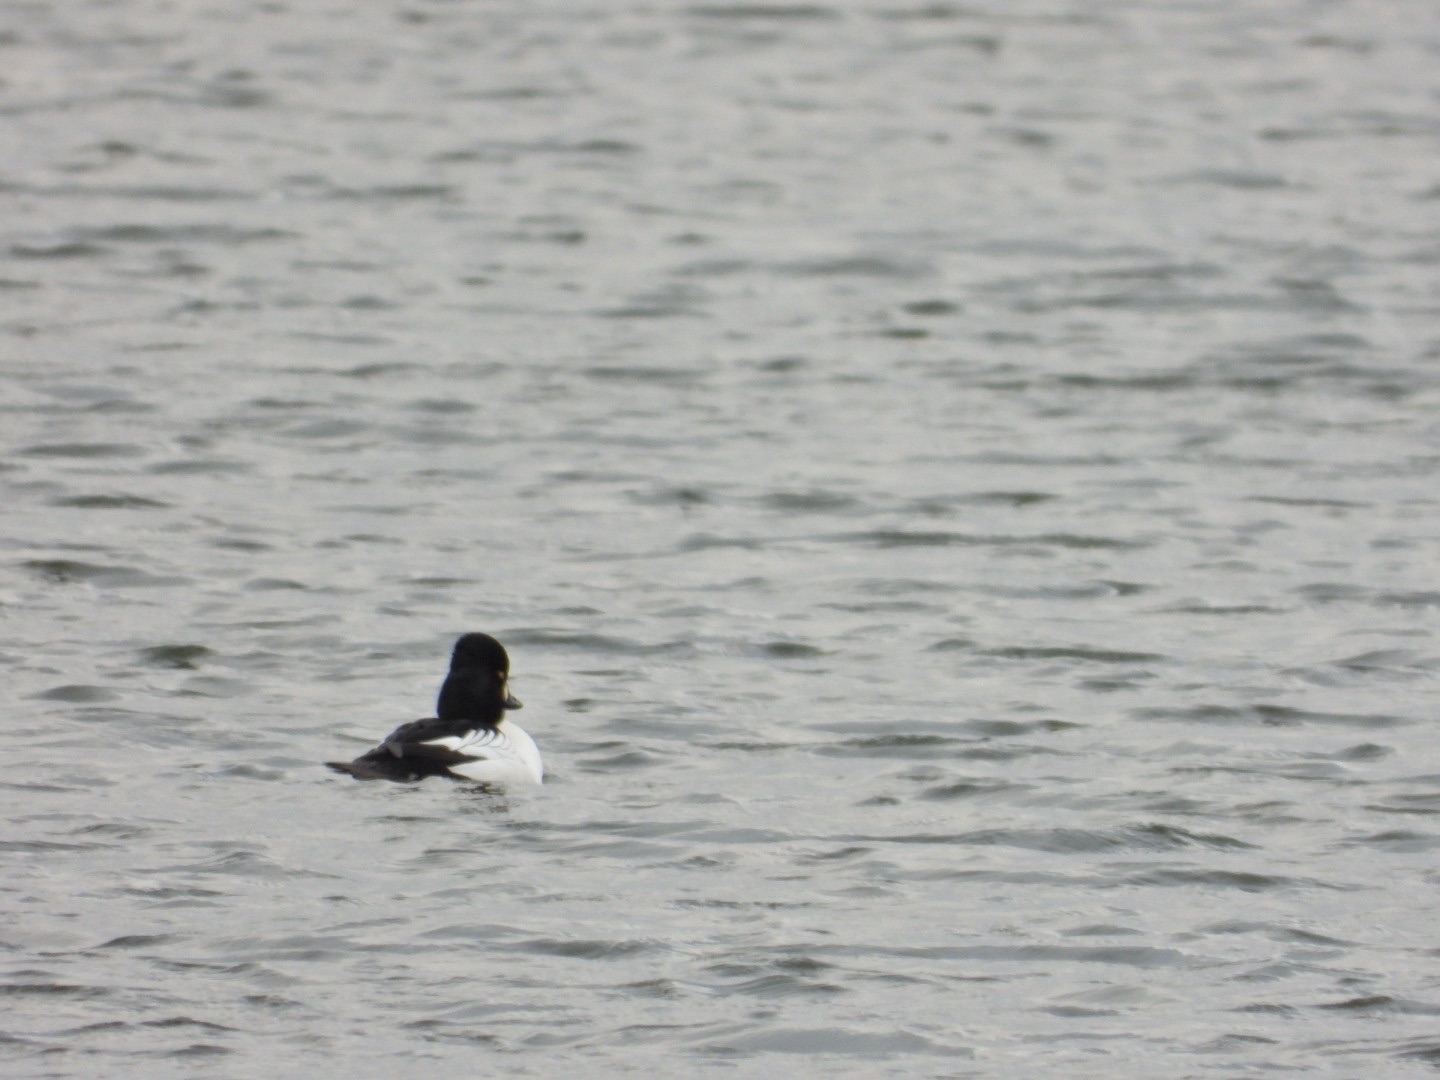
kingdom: Animalia
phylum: Chordata
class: Aves
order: Anseriformes
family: Anatidae
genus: Bucephala
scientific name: Bucephala clangula
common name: Hvinand
